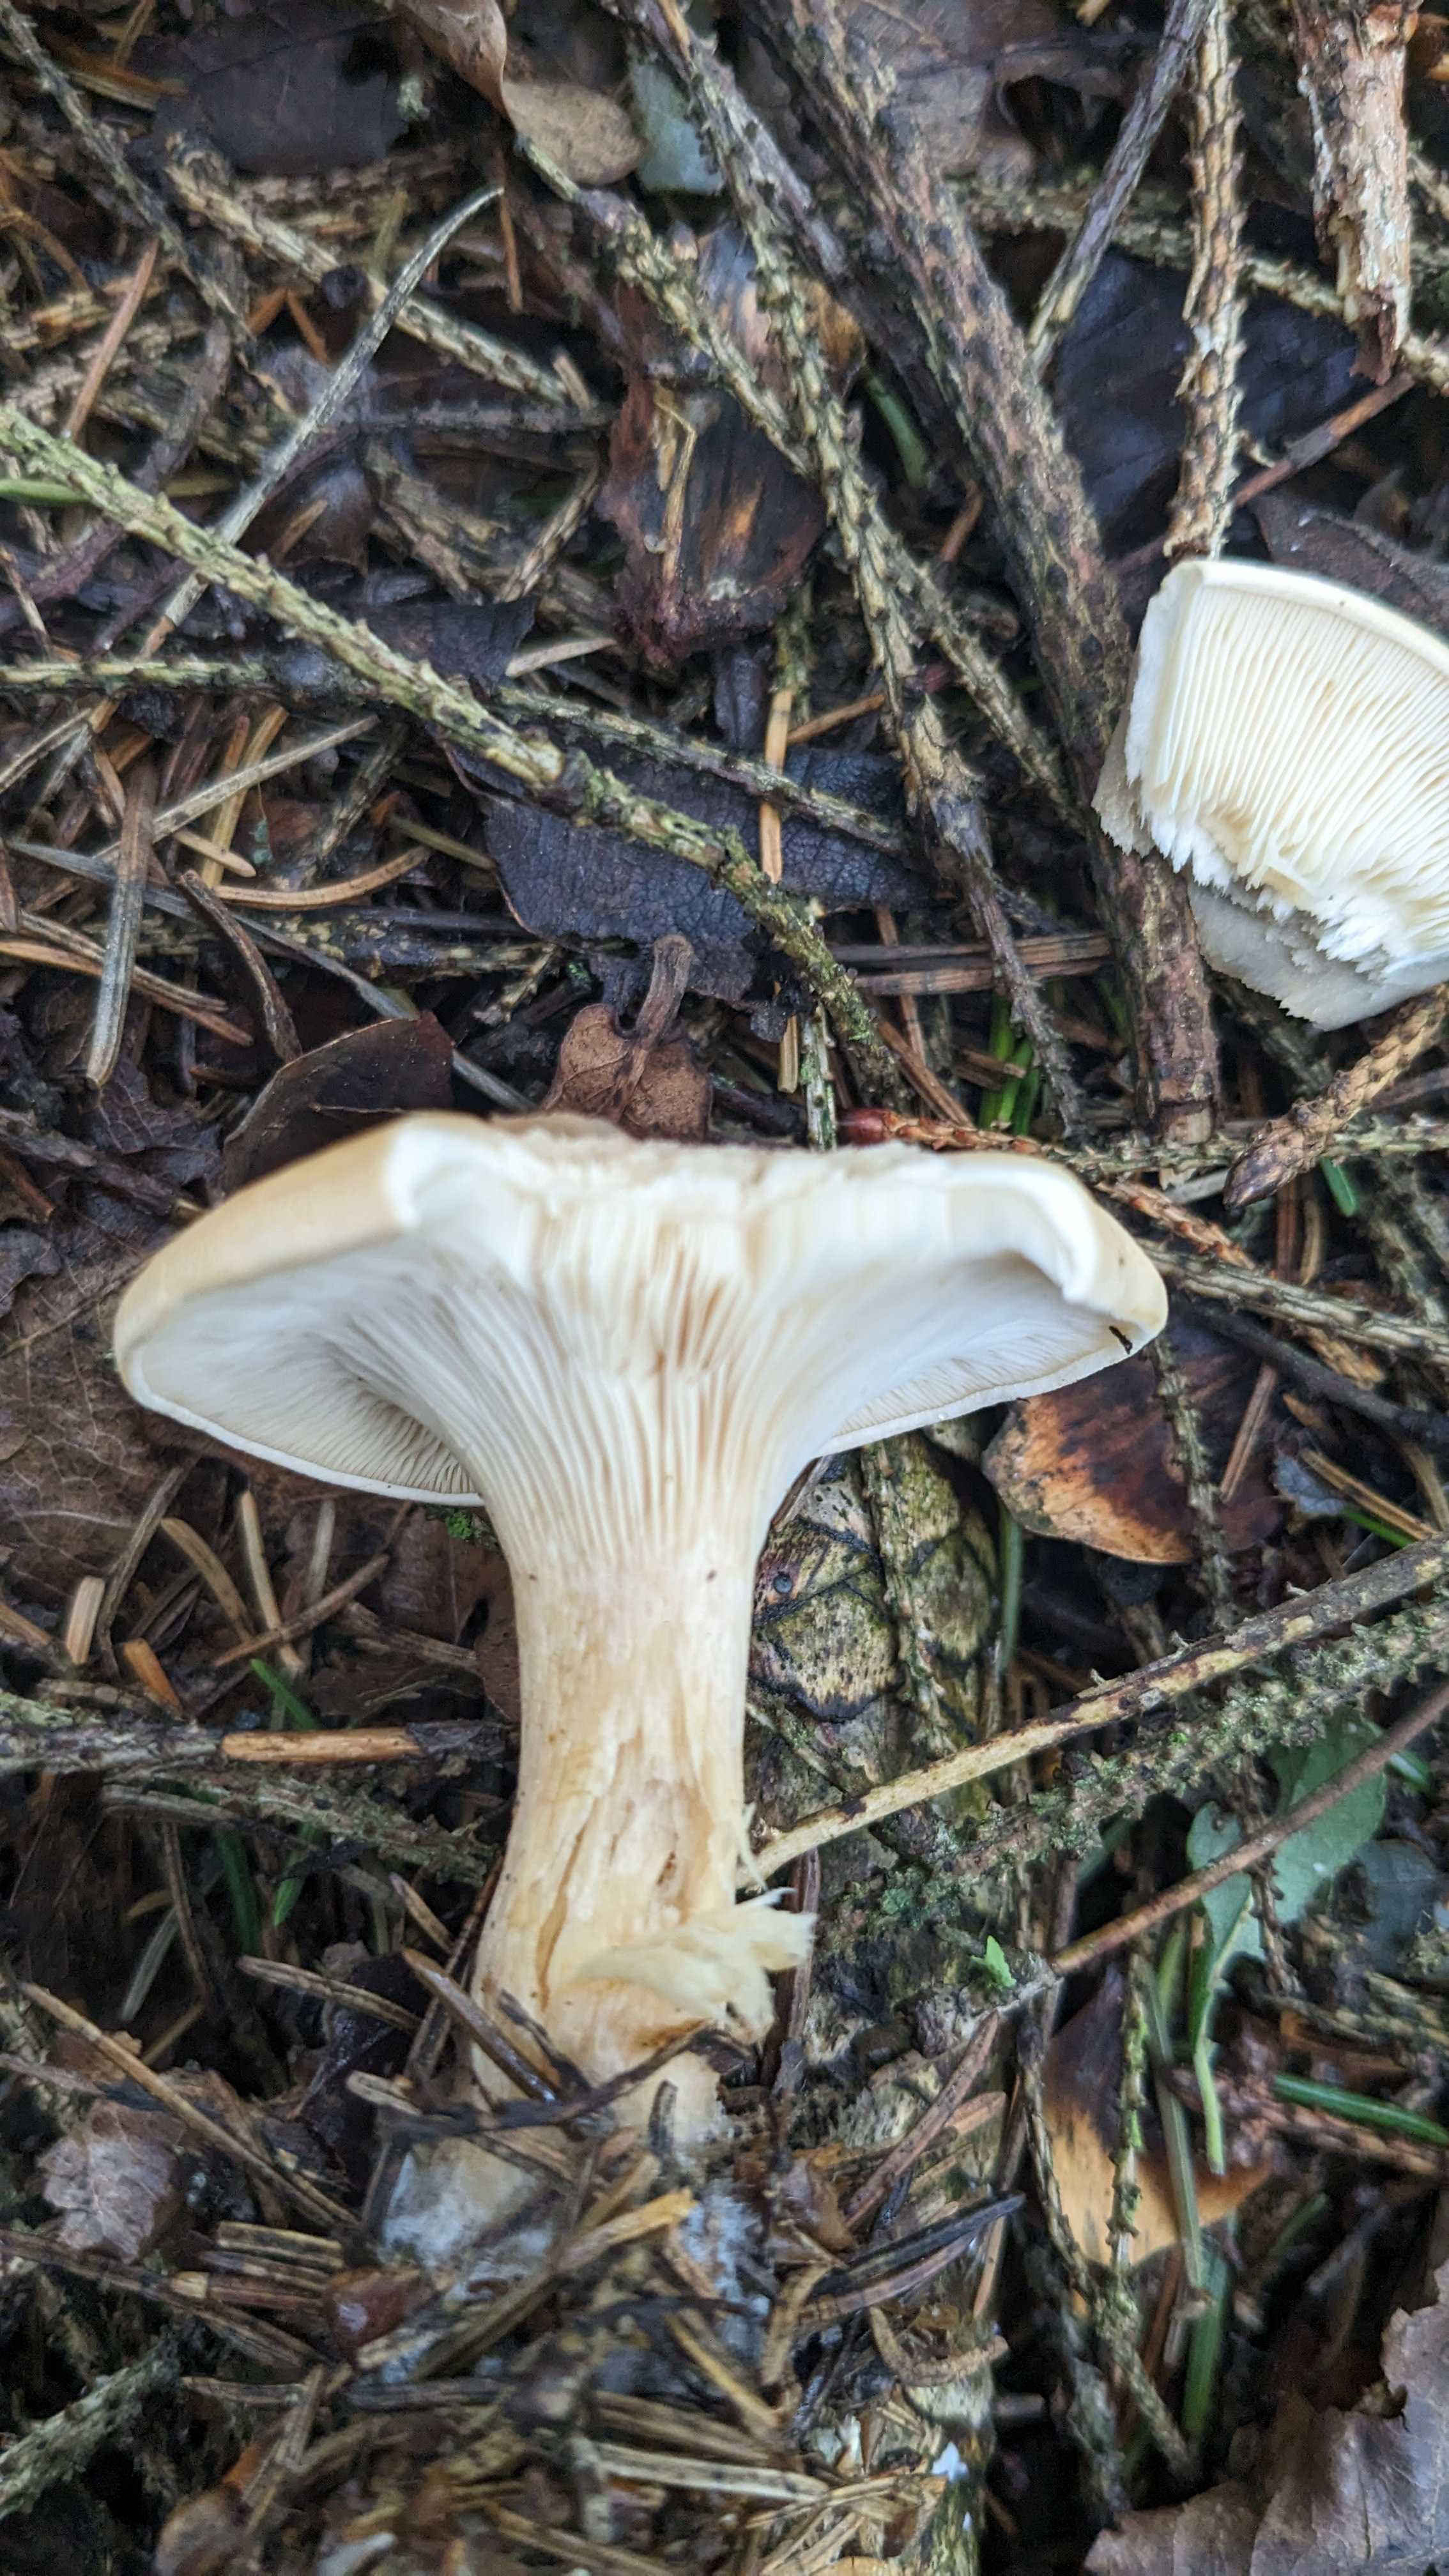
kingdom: Fungi
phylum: Basidiomycota
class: Agaricomycetes
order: Agaricales
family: Tricholomataceae
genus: Paralepista
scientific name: Paralepista flaccida
